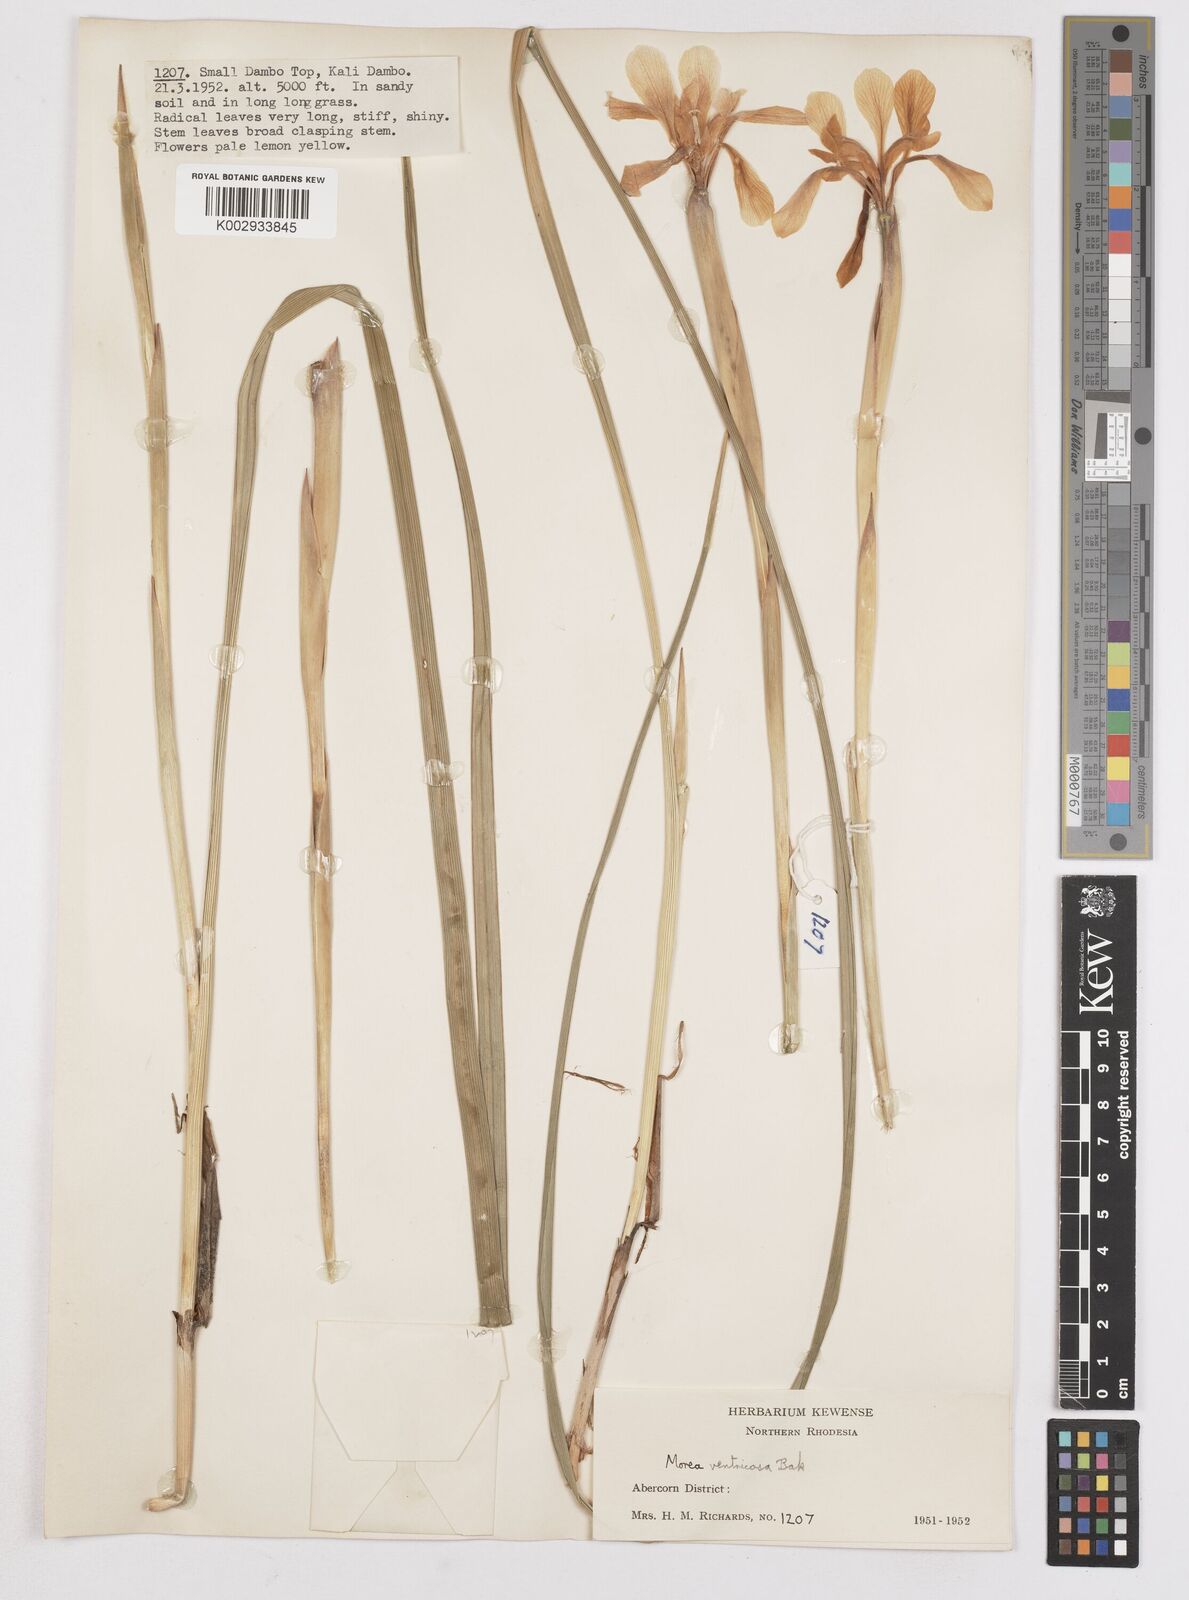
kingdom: Plantae
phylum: Tracheophyta
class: Liliopsida
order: Asparagales
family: Iridaceae
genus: Moraea
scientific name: Moraea ventricosa
